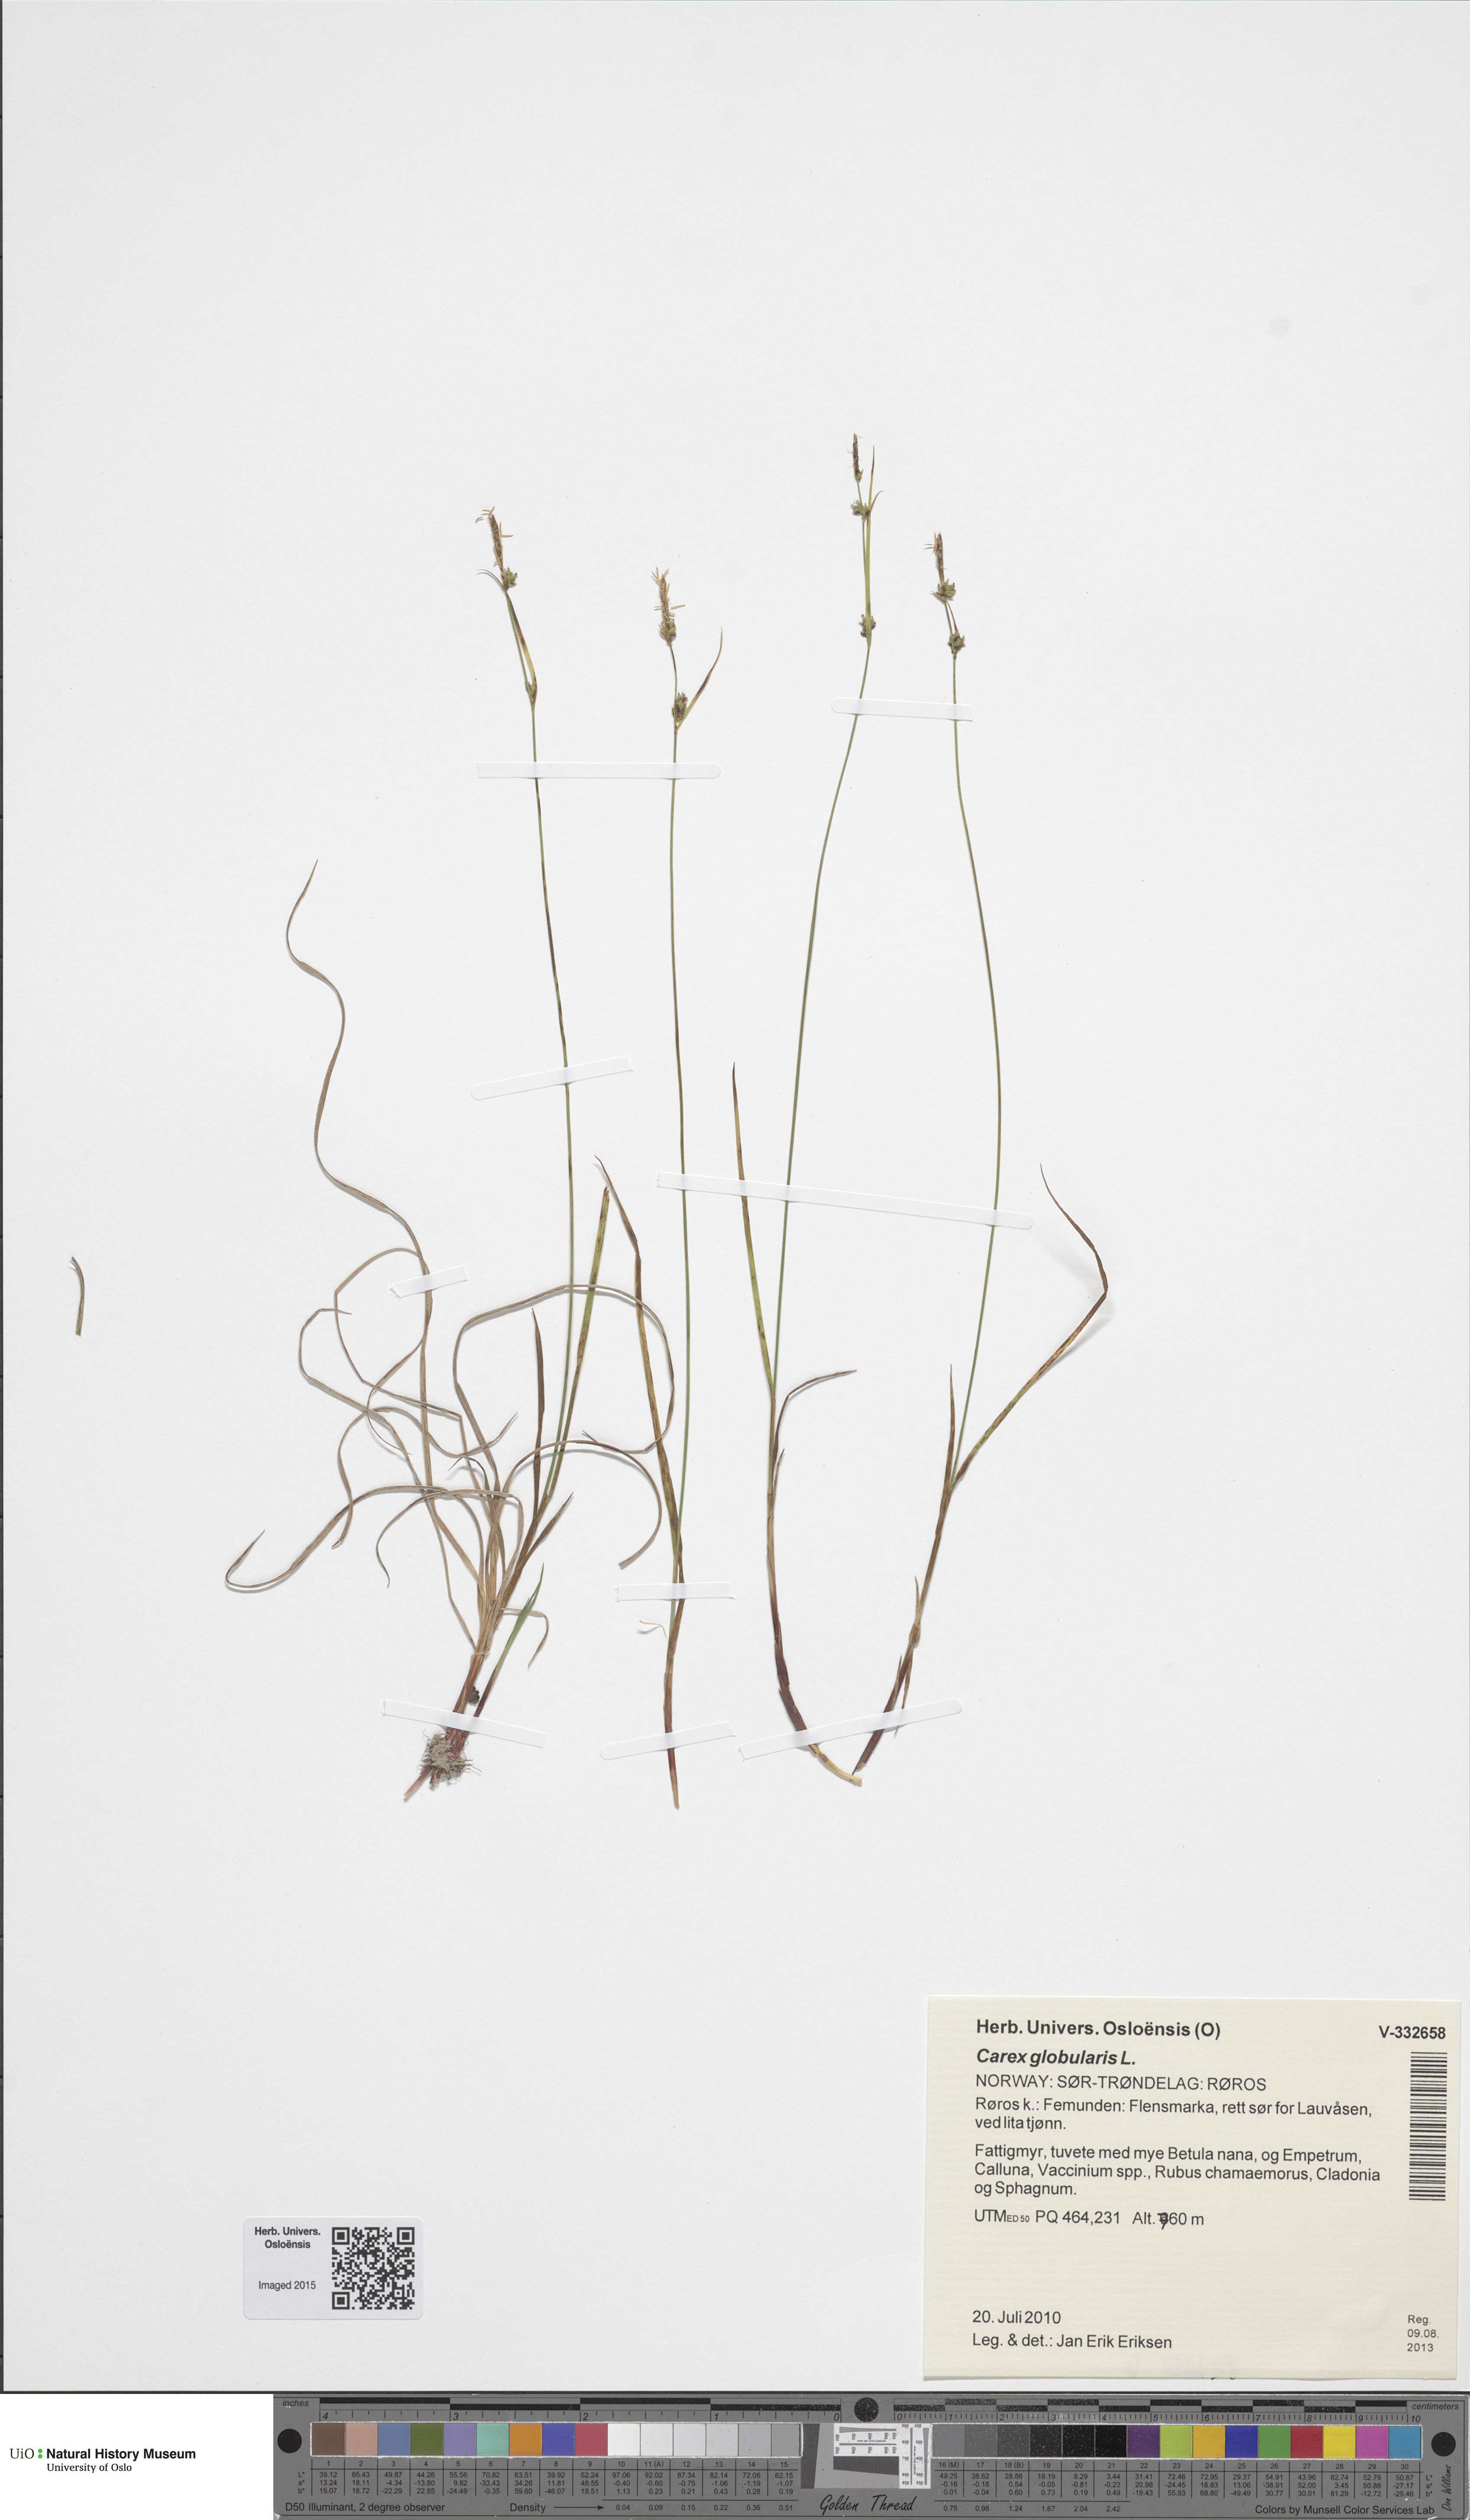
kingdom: Plantae
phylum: Tracheophyta
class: Liliopsida
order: Poales
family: Cyperaceae
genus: Carex
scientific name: Carex globularis
